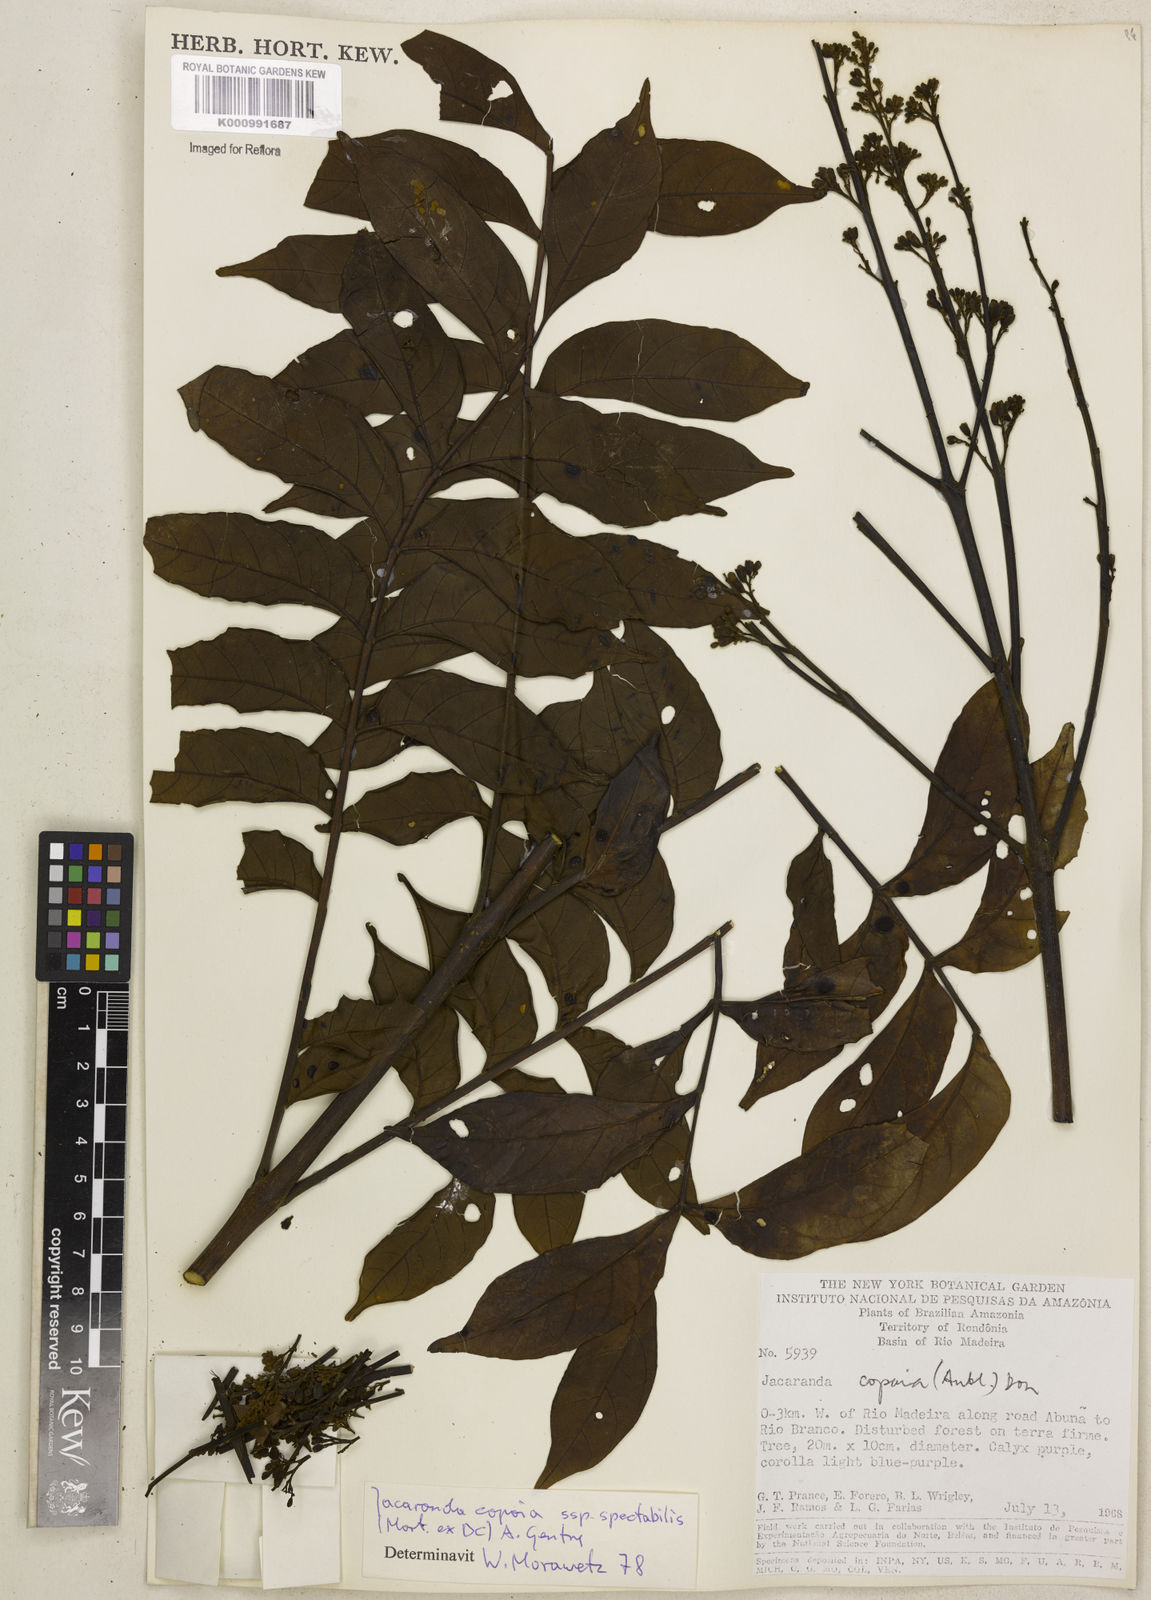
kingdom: Plantae
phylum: Tracheophyta
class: Magnoliopsida
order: Lamiales
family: Bignoniaceae
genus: Jacaranda
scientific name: Jacaranda
